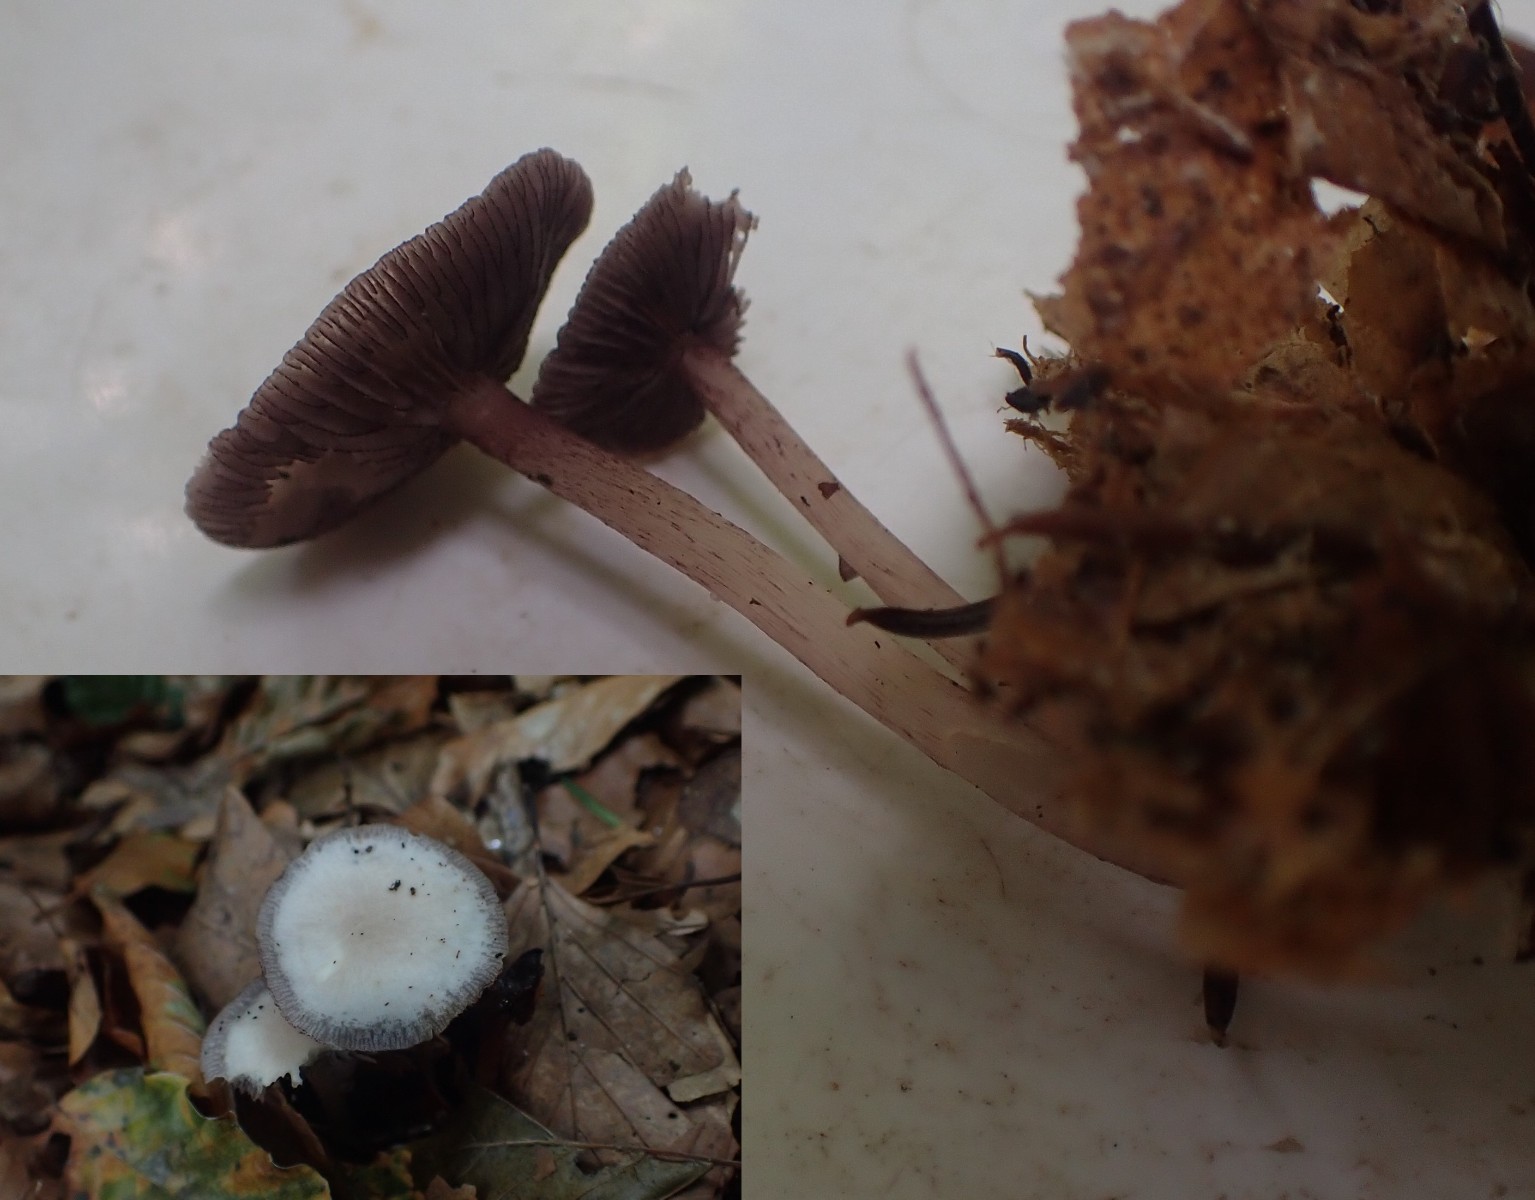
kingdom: Fungi
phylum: Basidiomycota
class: Agaricomycetes
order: Agaricales
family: Mycenaceae
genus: Mycena
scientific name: Mycena pelianthina
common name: mørkbladet huesvamp
